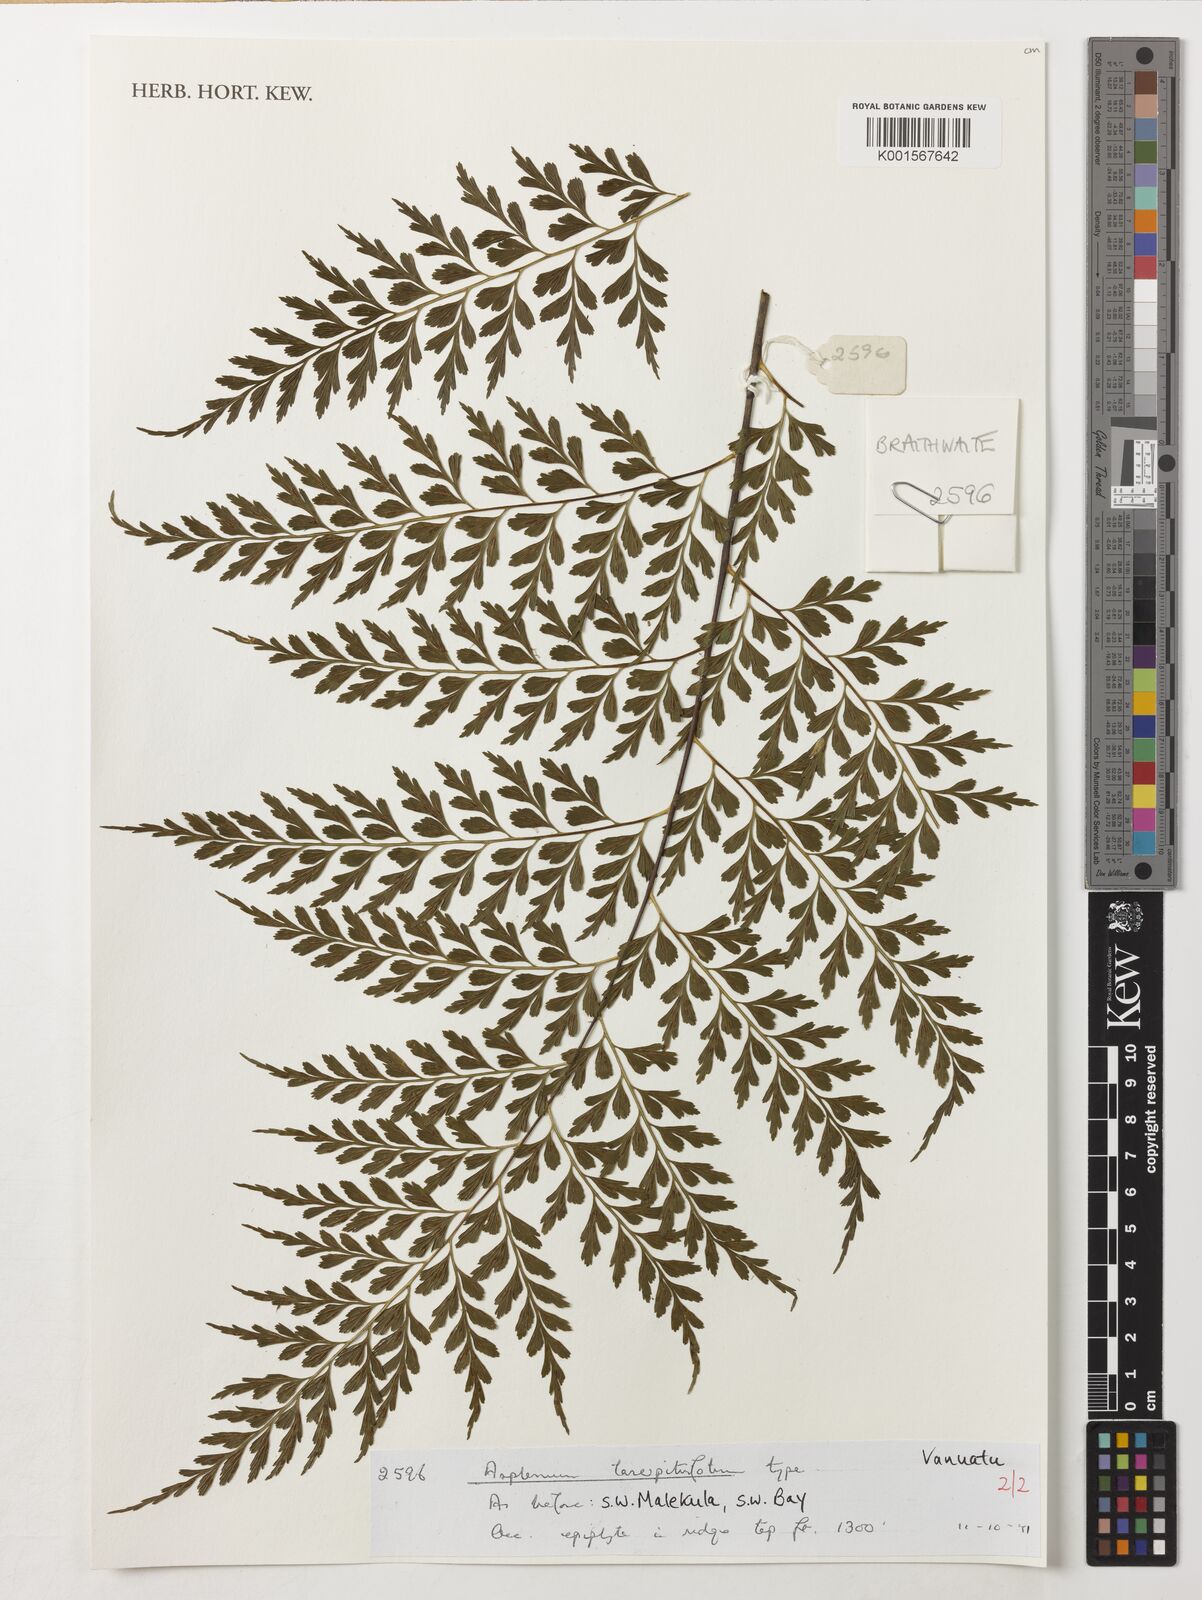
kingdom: Plantae
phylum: Tracheophyta
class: Polypodiopsida
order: Polypodiales
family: Aspleniaceae
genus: Asplenium
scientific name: Asplenium laserpitiifolium
